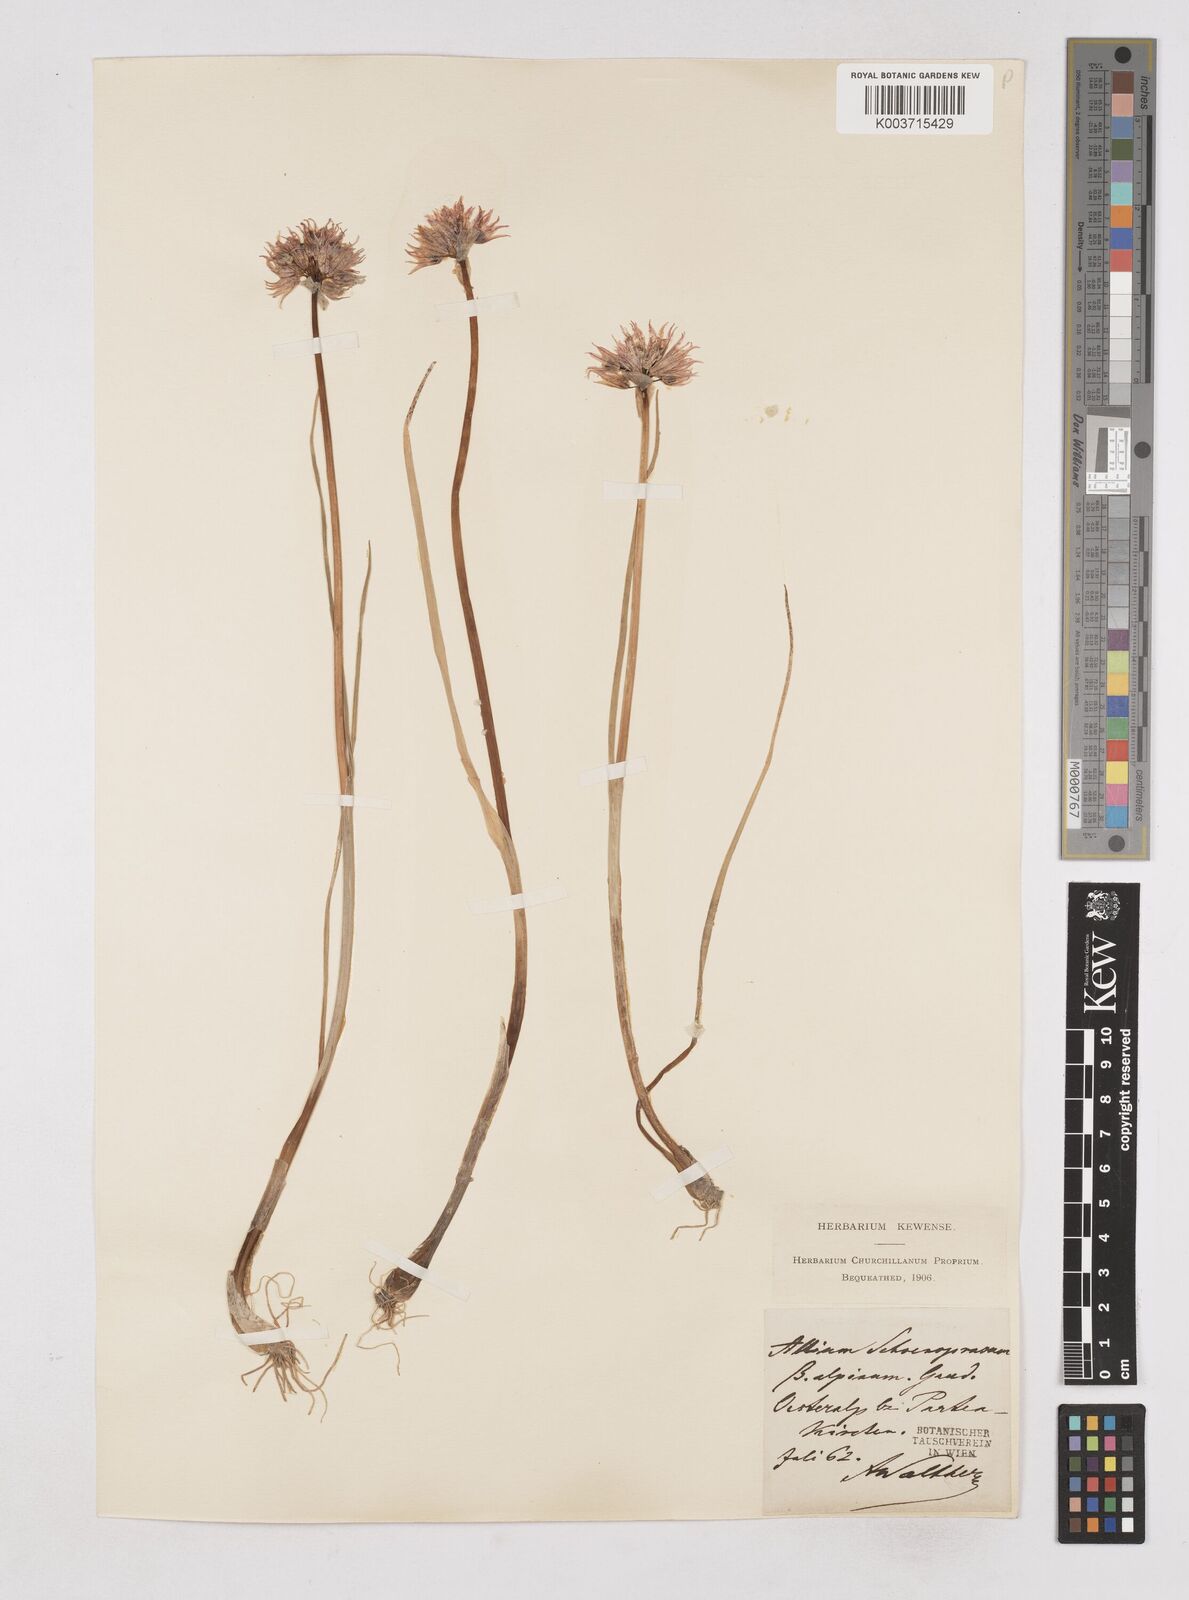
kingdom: Plantae
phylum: Tracheophyta
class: Liliopsida
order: Asparagales
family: Amaryllidaceae
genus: Allium
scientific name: Allium schoenoprasum
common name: Chives
